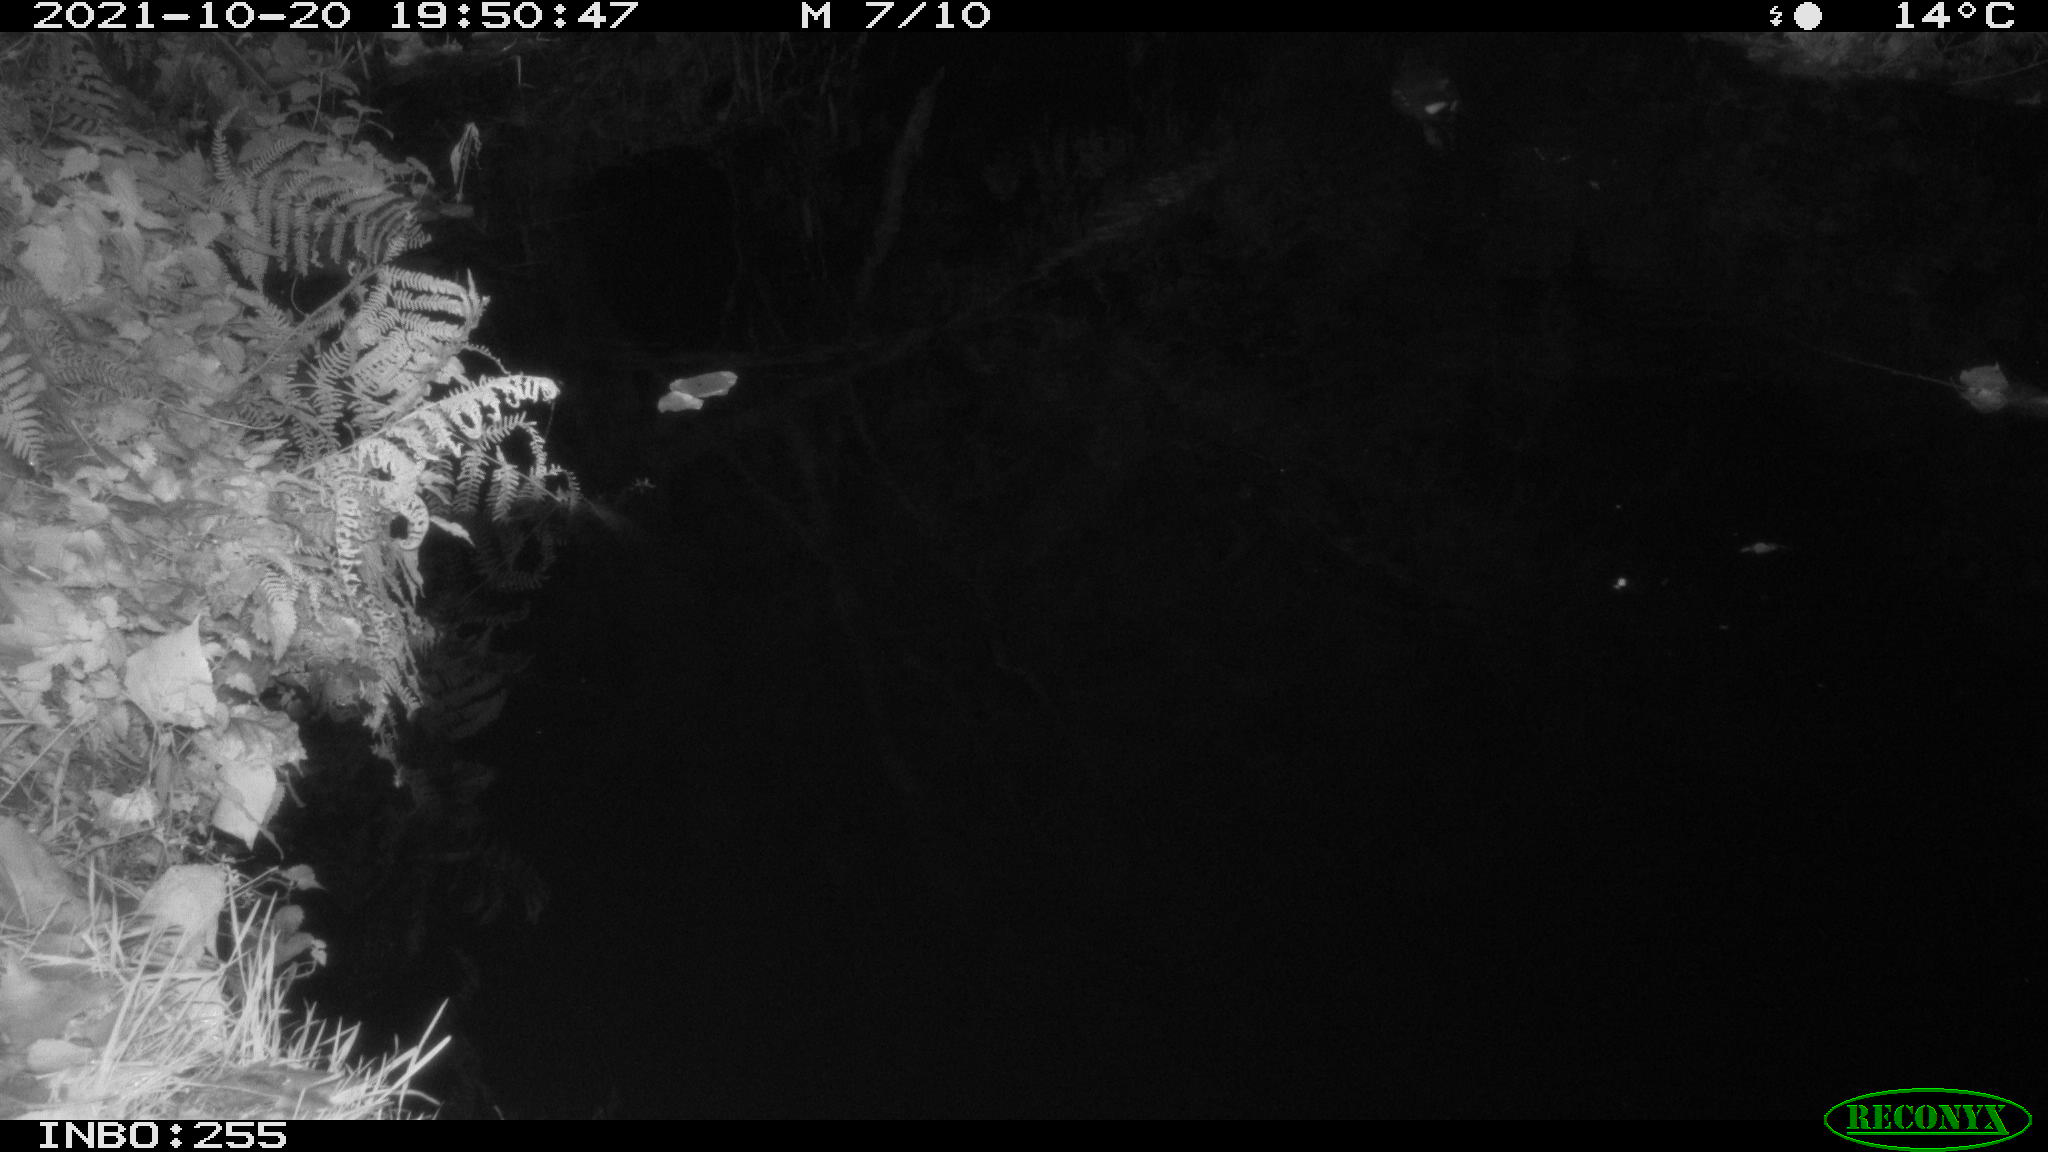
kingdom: Animalia
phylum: Chordata
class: Aves
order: Gruiformes
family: Rallidae
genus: Gallinula
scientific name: Gallinula chloropus
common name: Common moorhen
